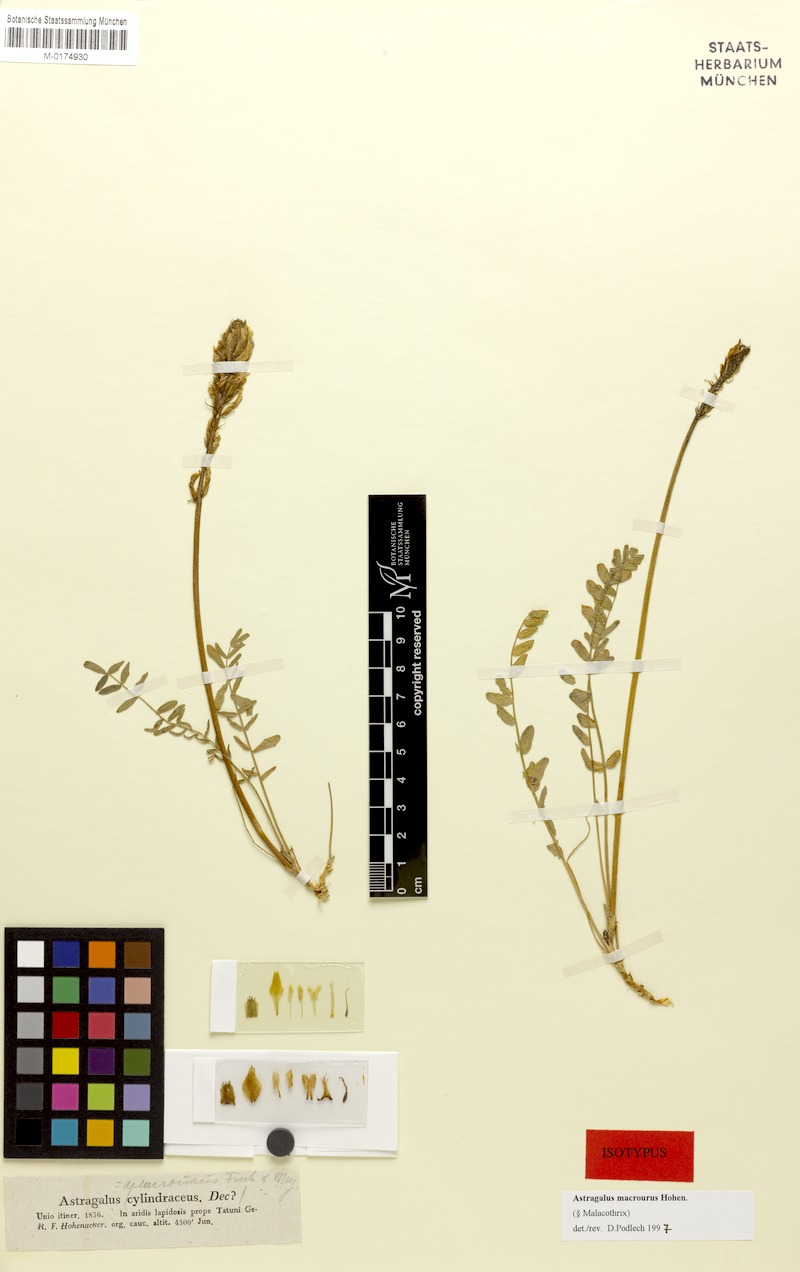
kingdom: Plantae
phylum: Tracheophyta
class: Magnoliopsida
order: Fabales
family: Fabaceae
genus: Astragalus
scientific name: Astragalus macrourus
